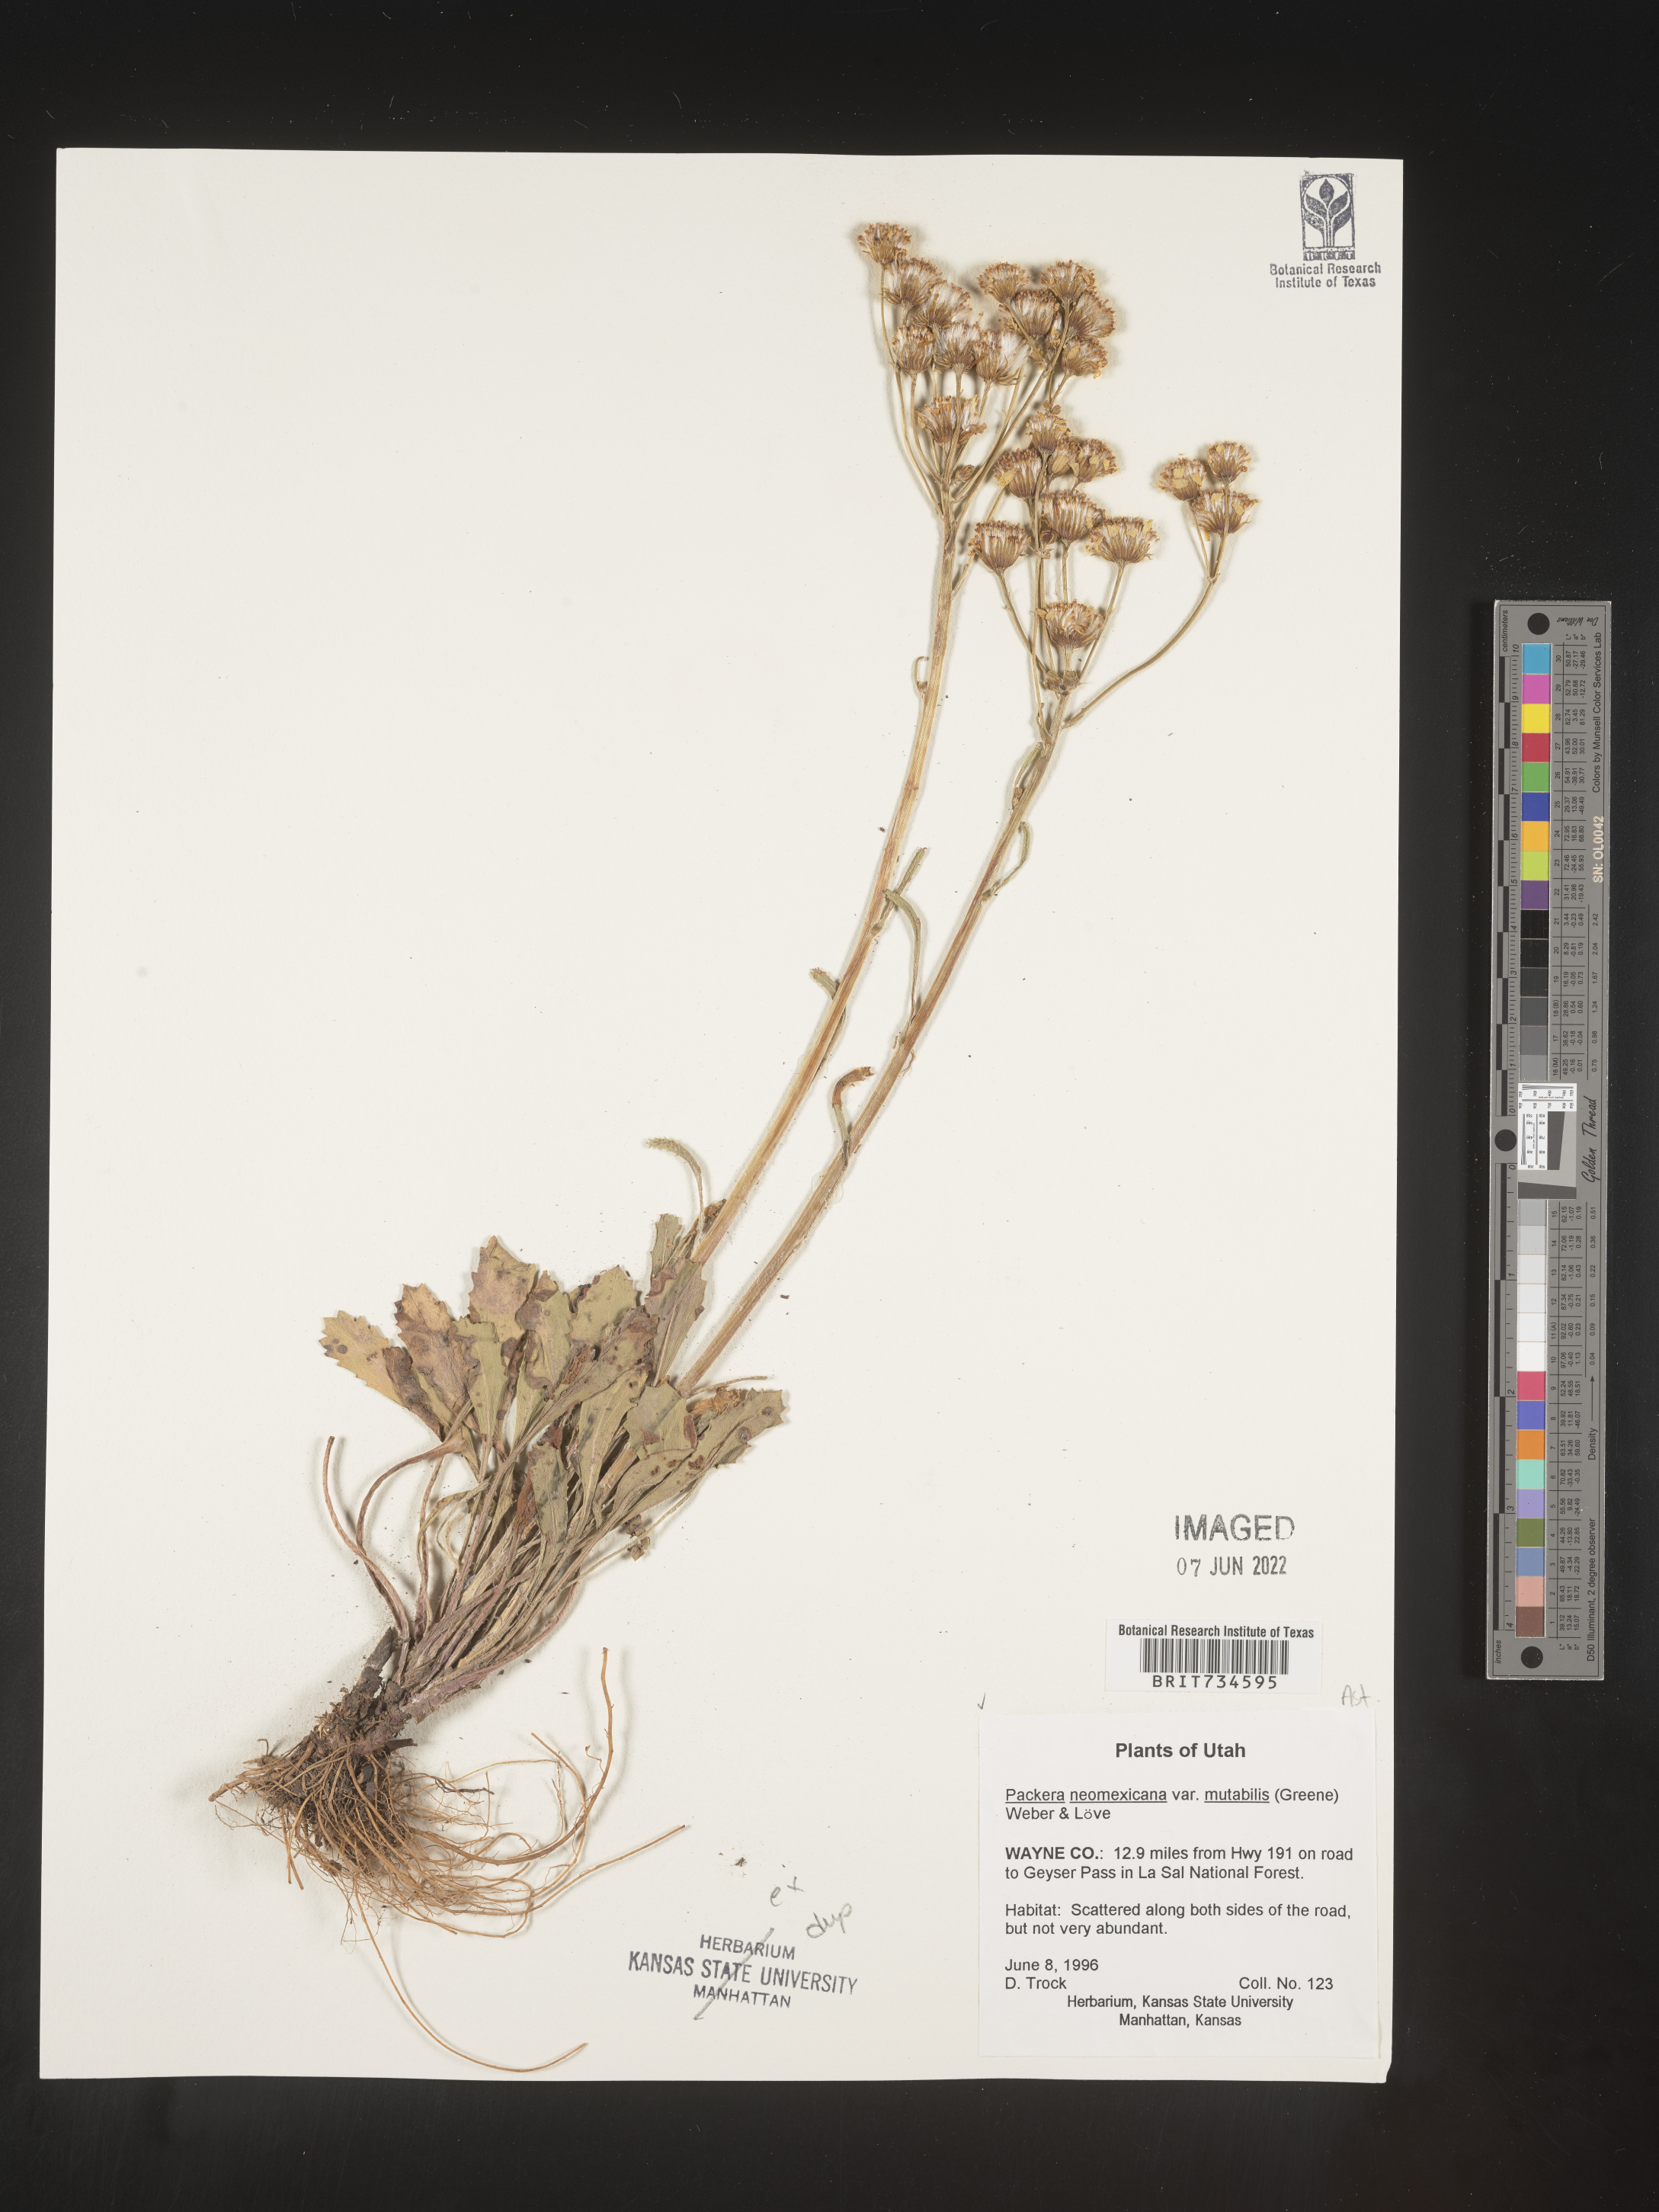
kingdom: Plantae
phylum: Tracheophyta
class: Magnoliopsida
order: Asterales
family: Asteraceae
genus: Packera
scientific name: Packera neomexicana
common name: New mexico butterweed
